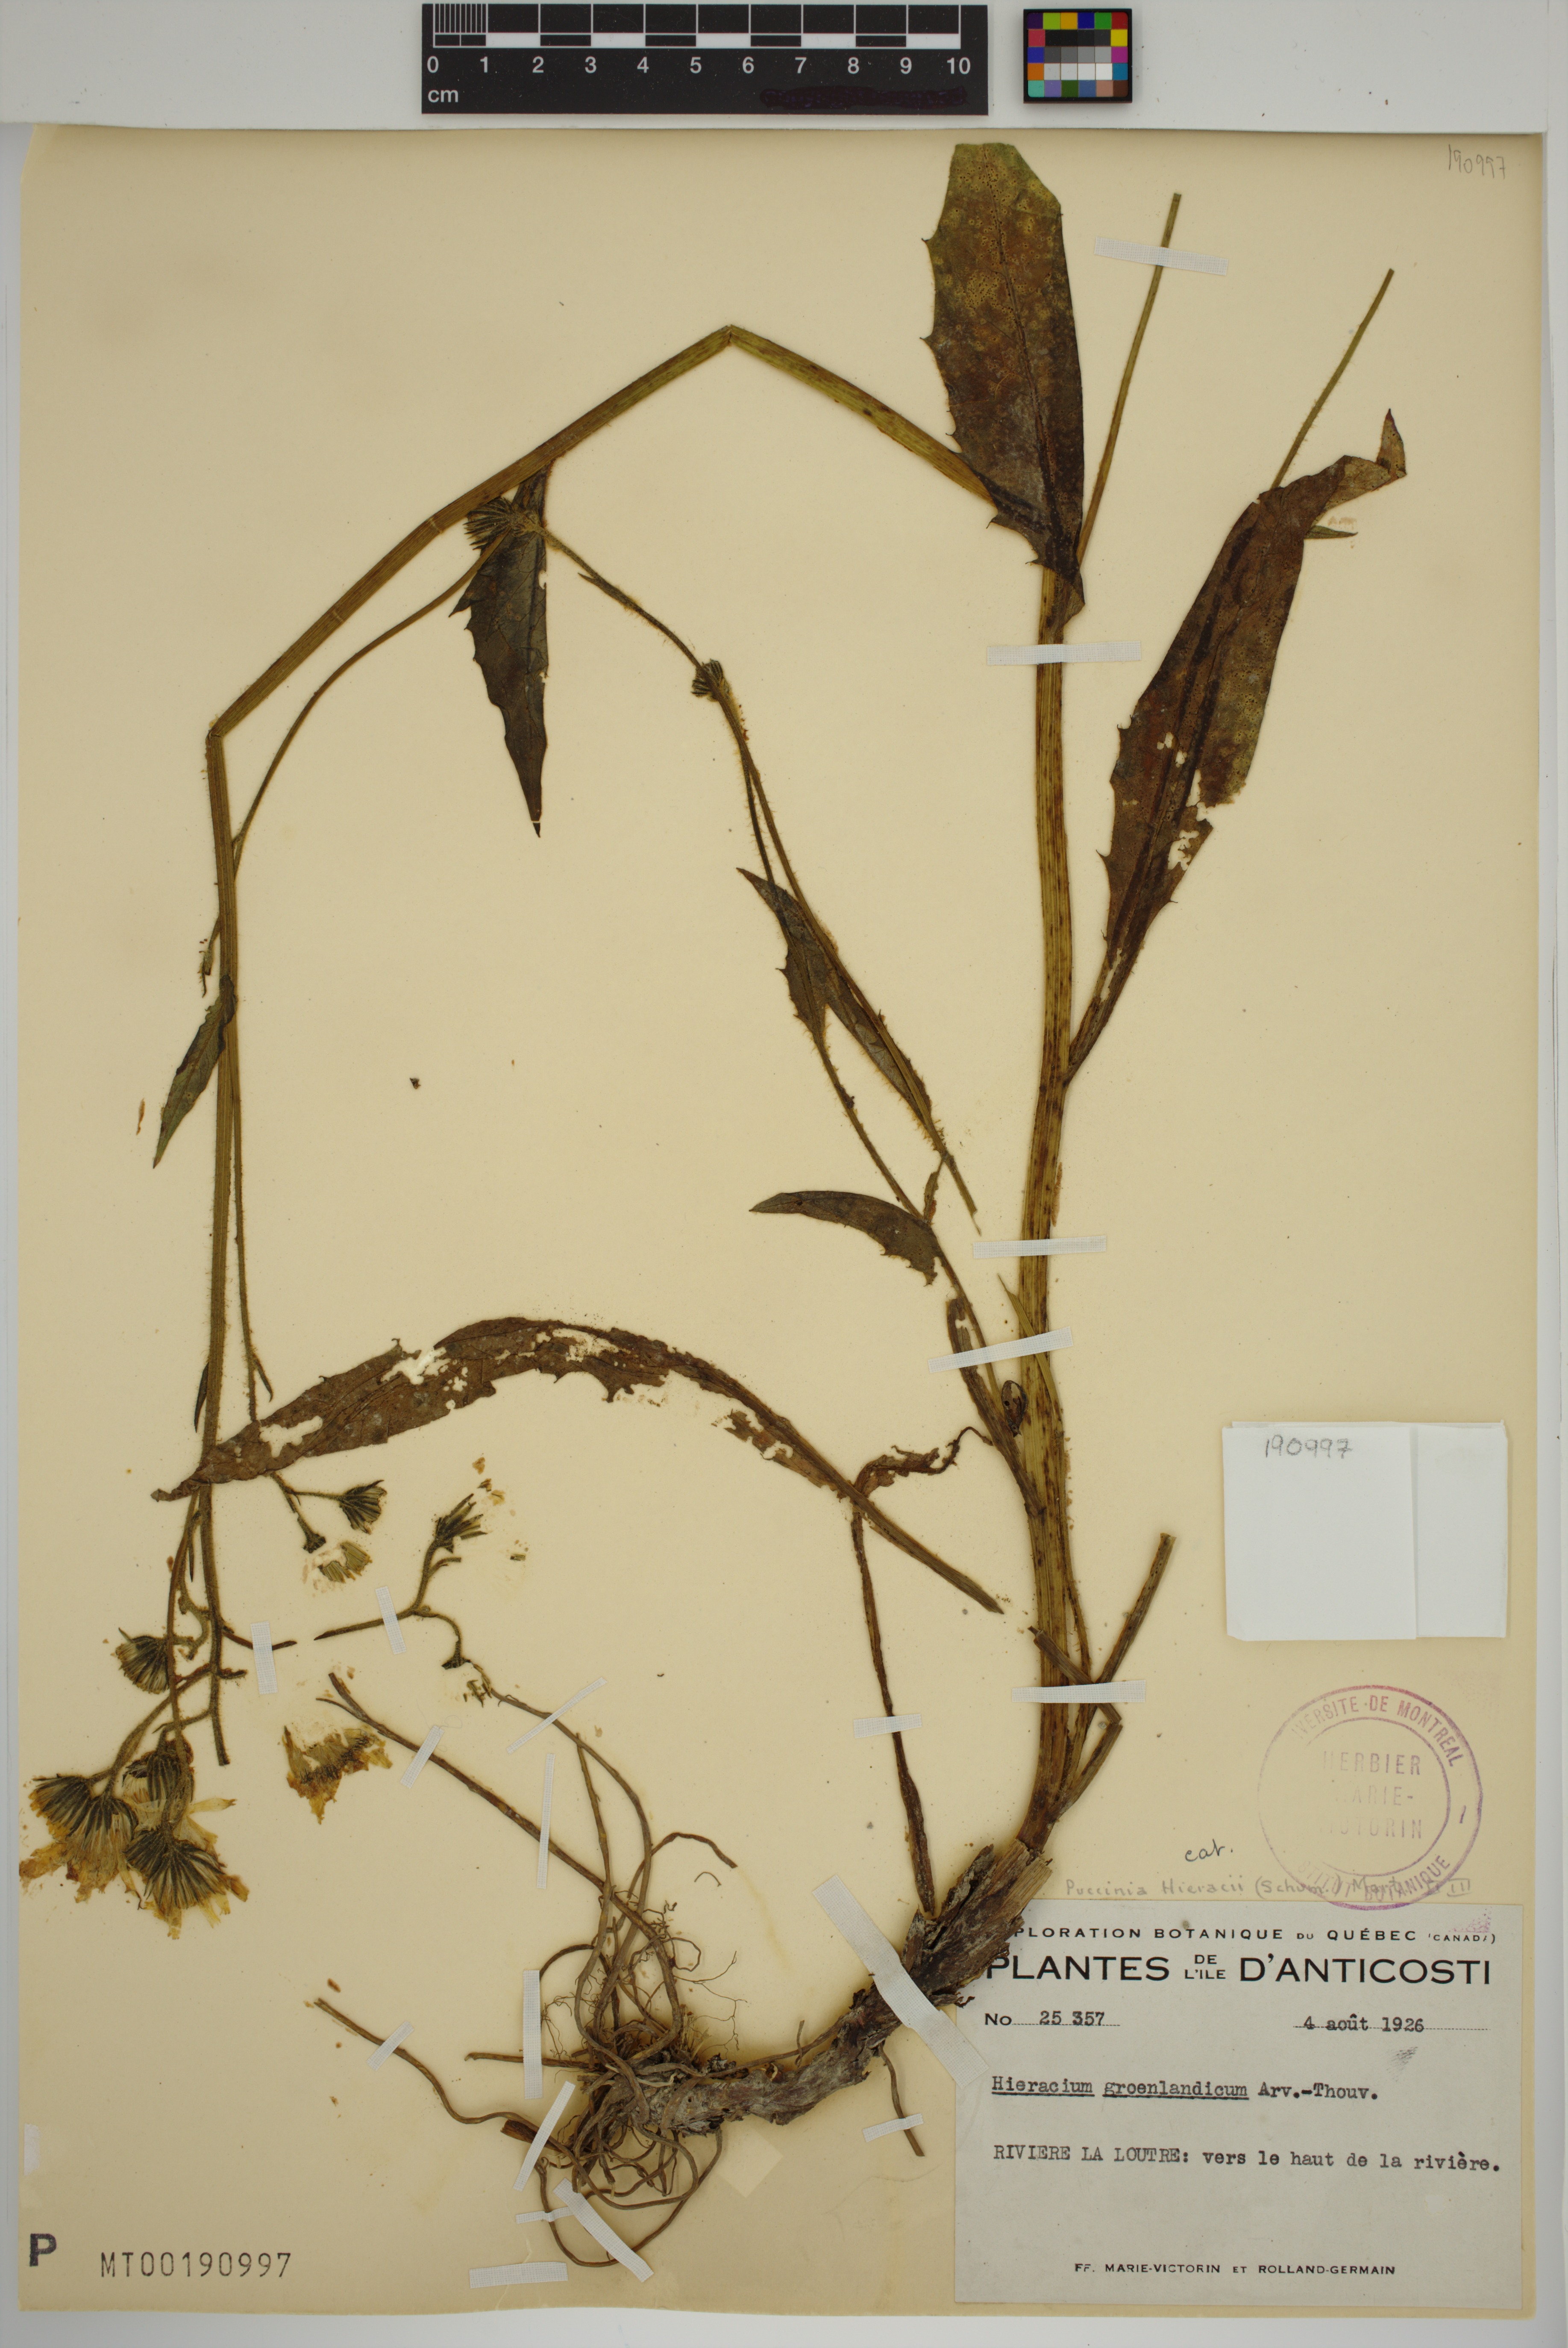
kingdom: Plantae
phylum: Tracheophyta
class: Magnoliopsida
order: Asterales
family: Asteraceae
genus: Hieracium
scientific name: Hieracium lachenalii
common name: Common hawkweed
